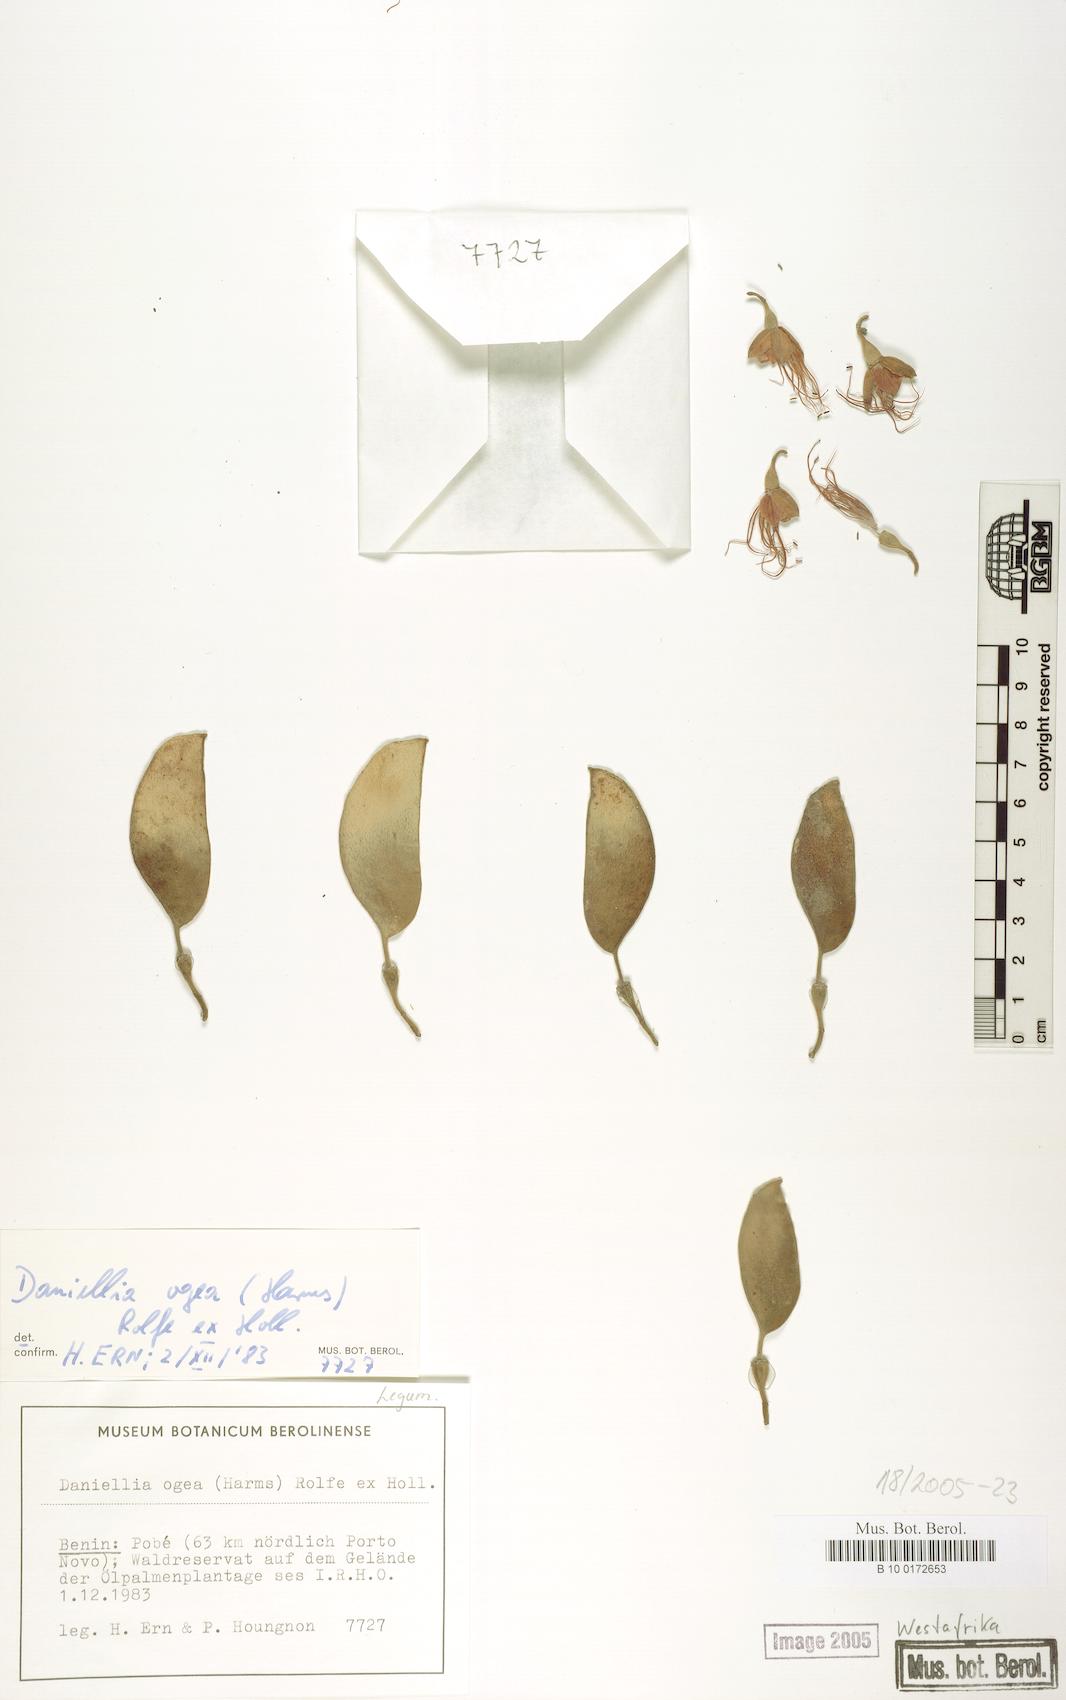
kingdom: Plantae
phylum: Tracheophyta
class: Magnoliopsida
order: Fabales
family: Fabaceae
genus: Daniellia
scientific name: Daniellia ogea
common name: Accra copal
